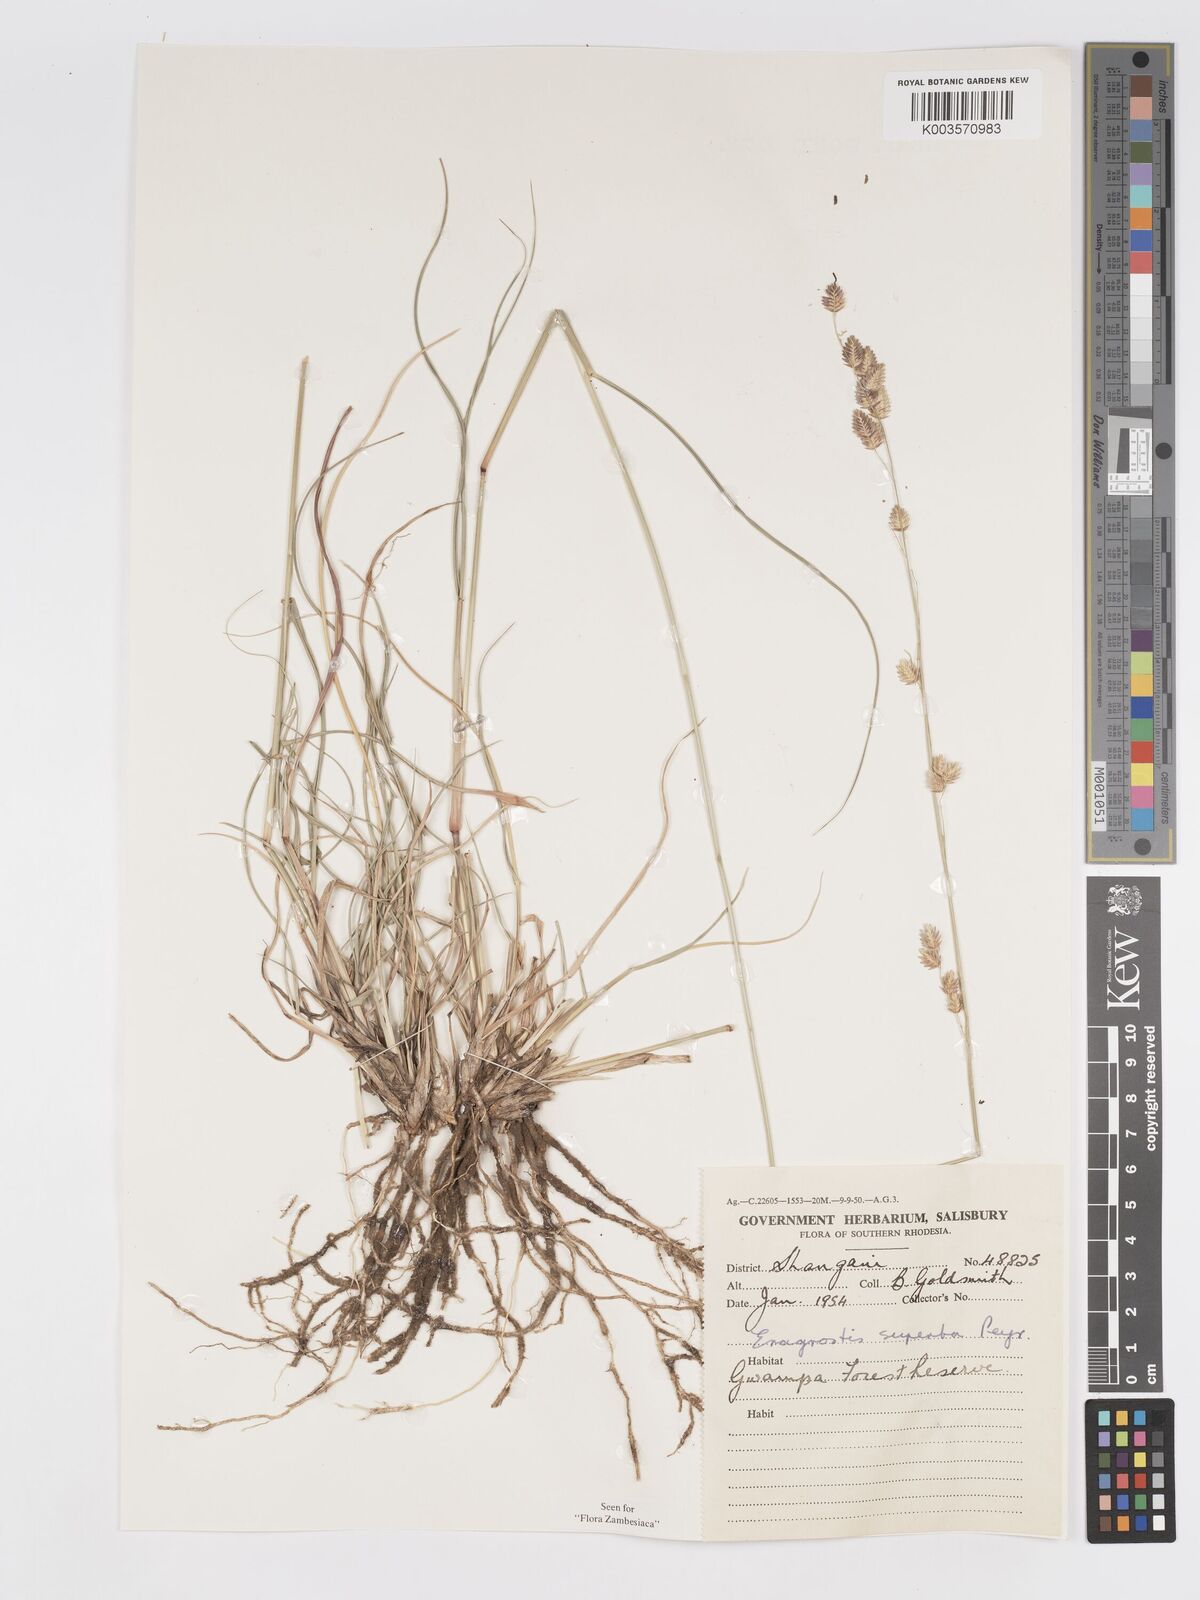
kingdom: Plantae
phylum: Tracheophyta
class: Liliopsida
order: Poales
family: Poaceae
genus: Eragrostis
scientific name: Eragrostis superba
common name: Wilman lovegrass
